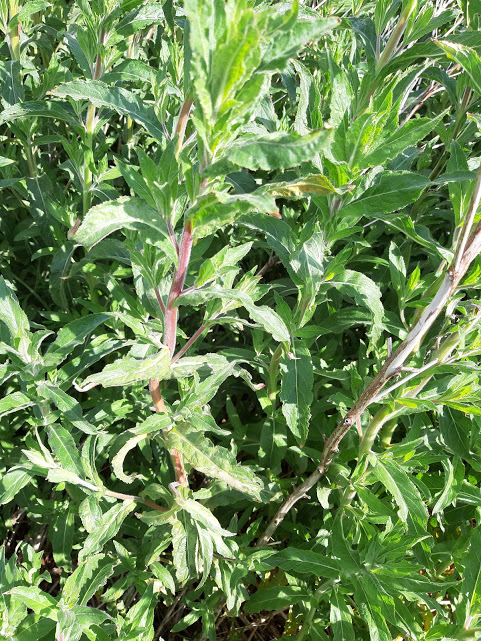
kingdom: Fungi
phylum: Basidiomycota
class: Pucciniomycetes
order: Pucciniales
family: Pucciniaceae
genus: Puccinia
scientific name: Puccinia pulverulenta
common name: dueurt-tvecellerust
